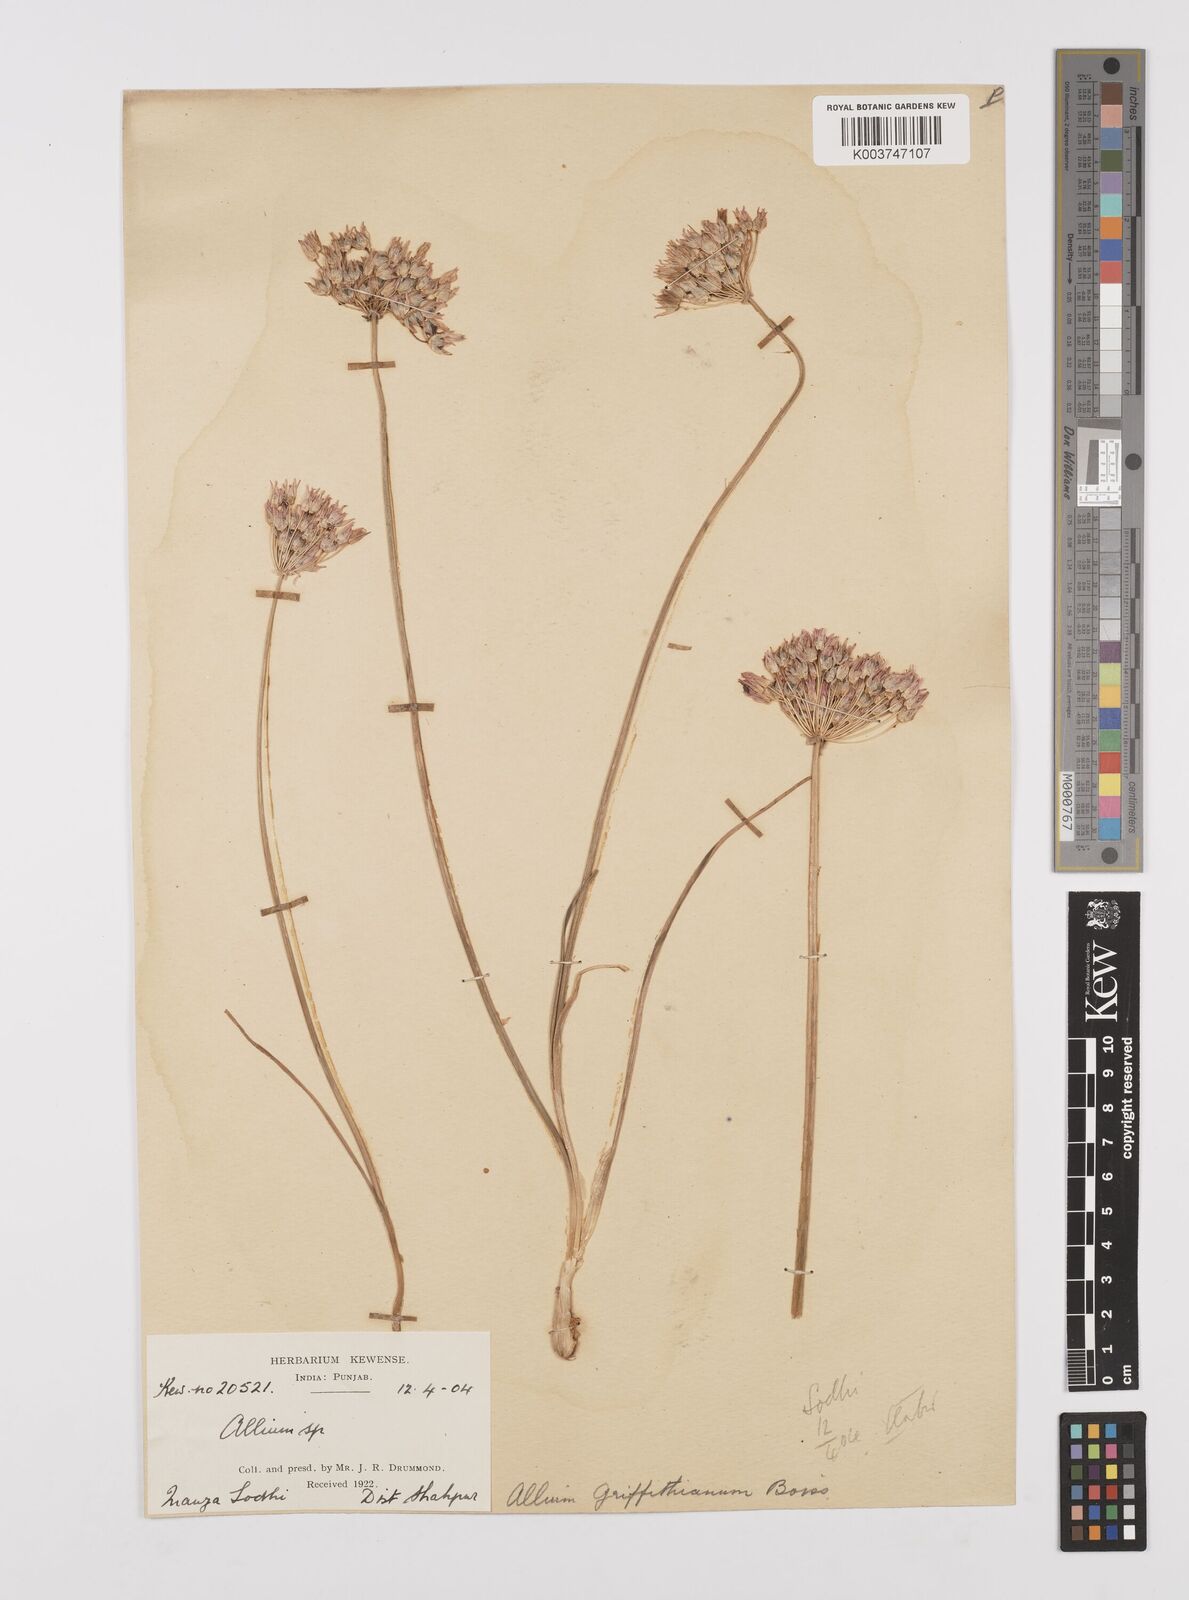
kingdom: Plantae
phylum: Tracheophyta
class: Liliopsida
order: Asparagales
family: Amaryllidaceae
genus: Allium
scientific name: Allium griffithianum
